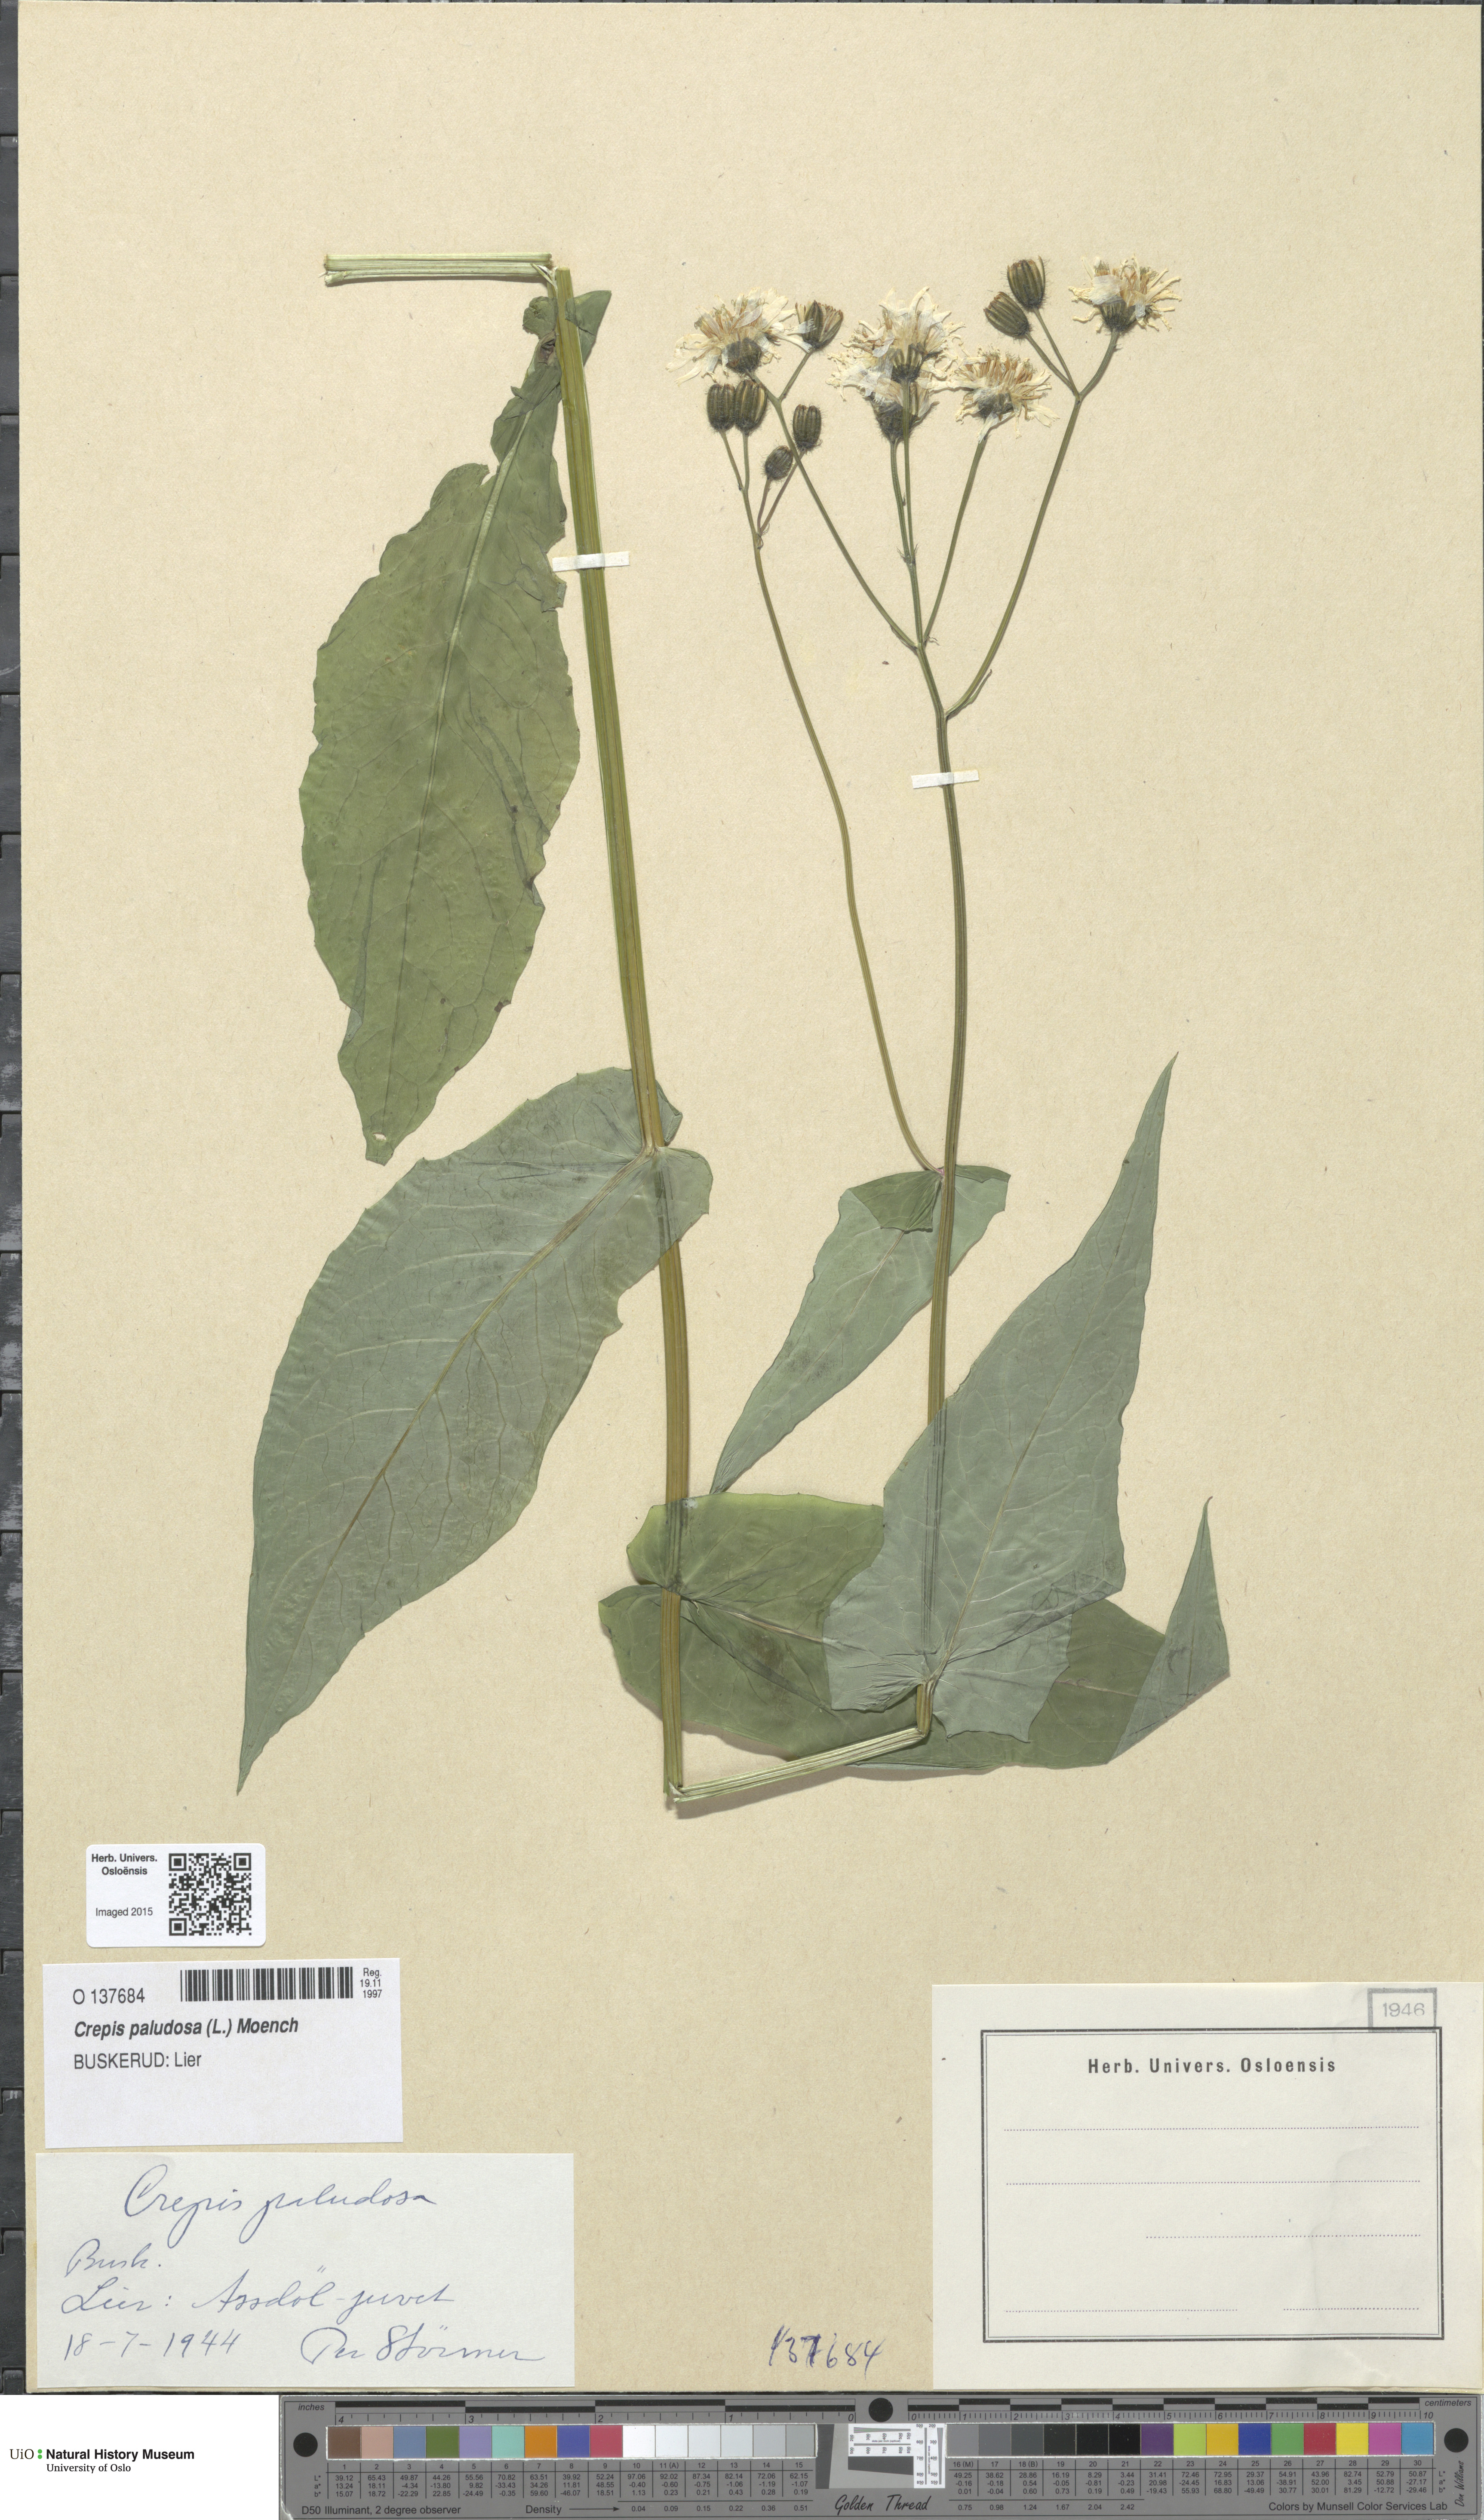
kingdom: Plantae
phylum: Tracheophyta
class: Magnoliopsida
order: Asterales
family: Asteraceae
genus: Crepis
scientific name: Crepis paludosa
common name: Marsh hawk's-beard
